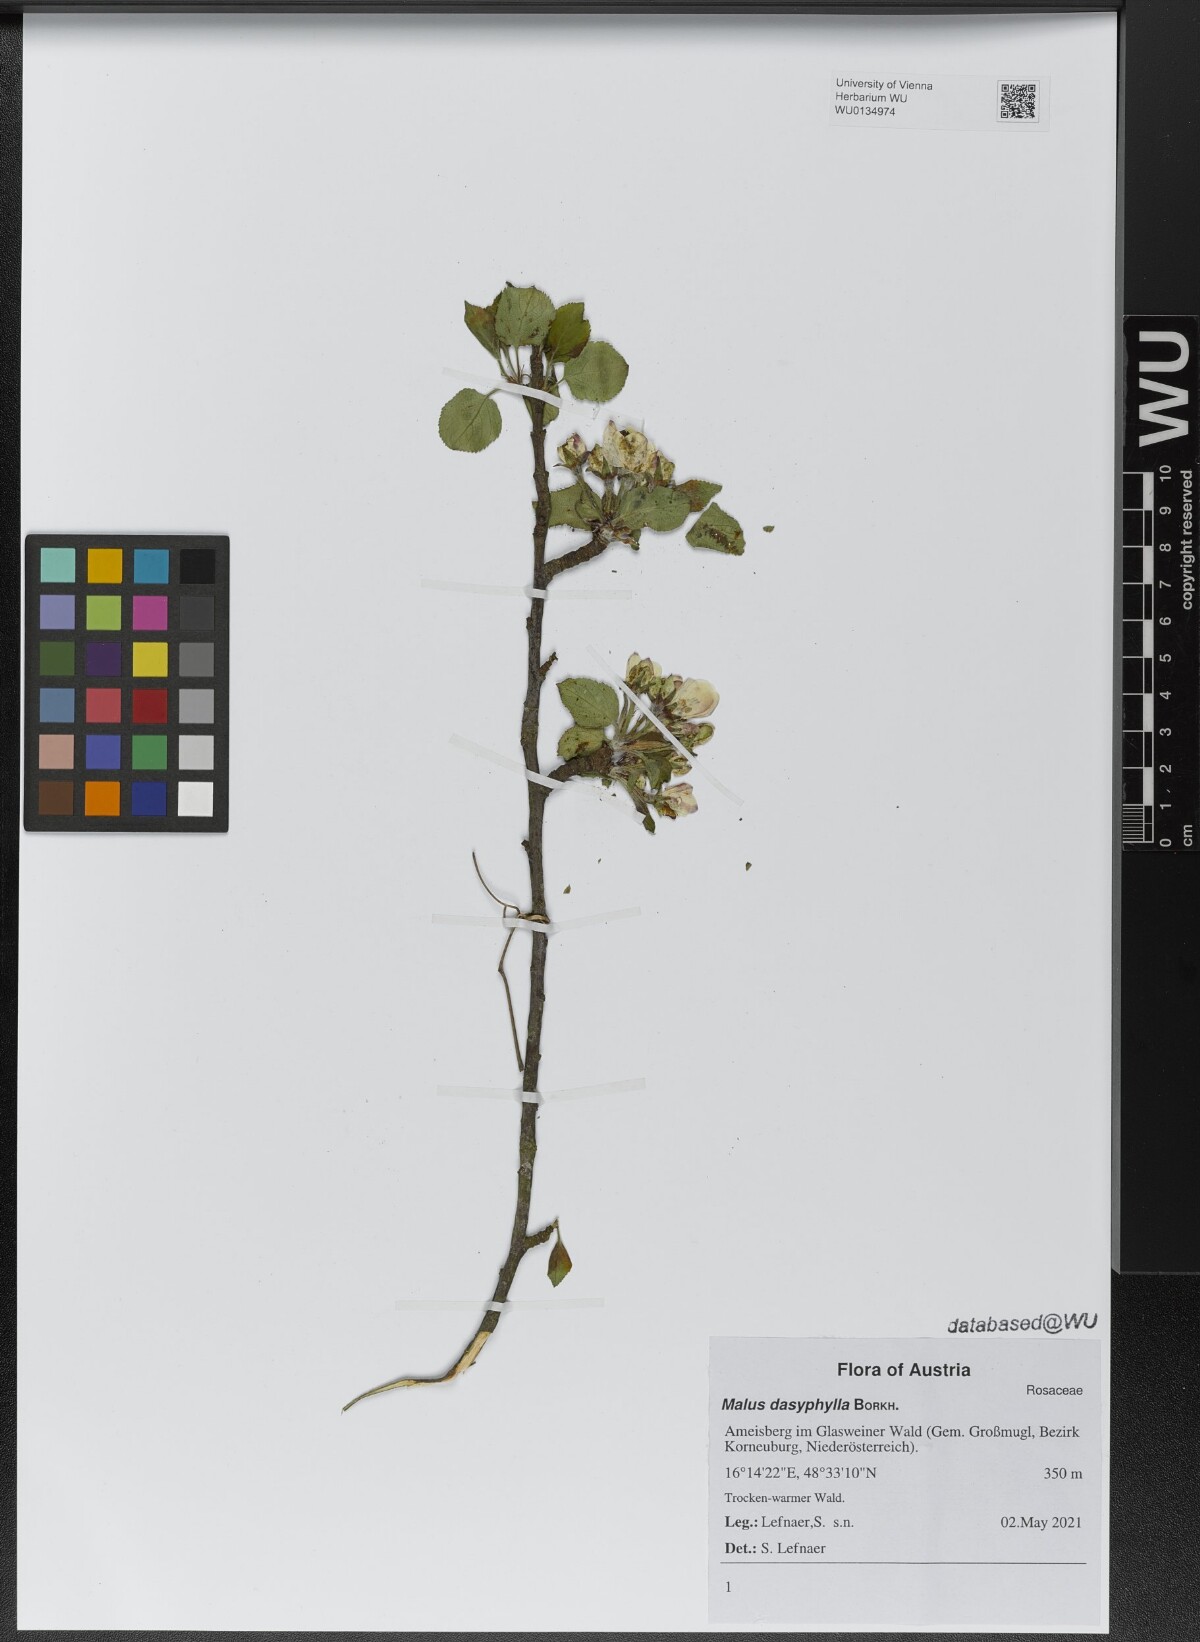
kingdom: Plantae
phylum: Tracheophyta
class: Magnoliopsida
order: Rosales
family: Rosaceae
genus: Malus
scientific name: Malus dasyphylla
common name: Paradise apple
